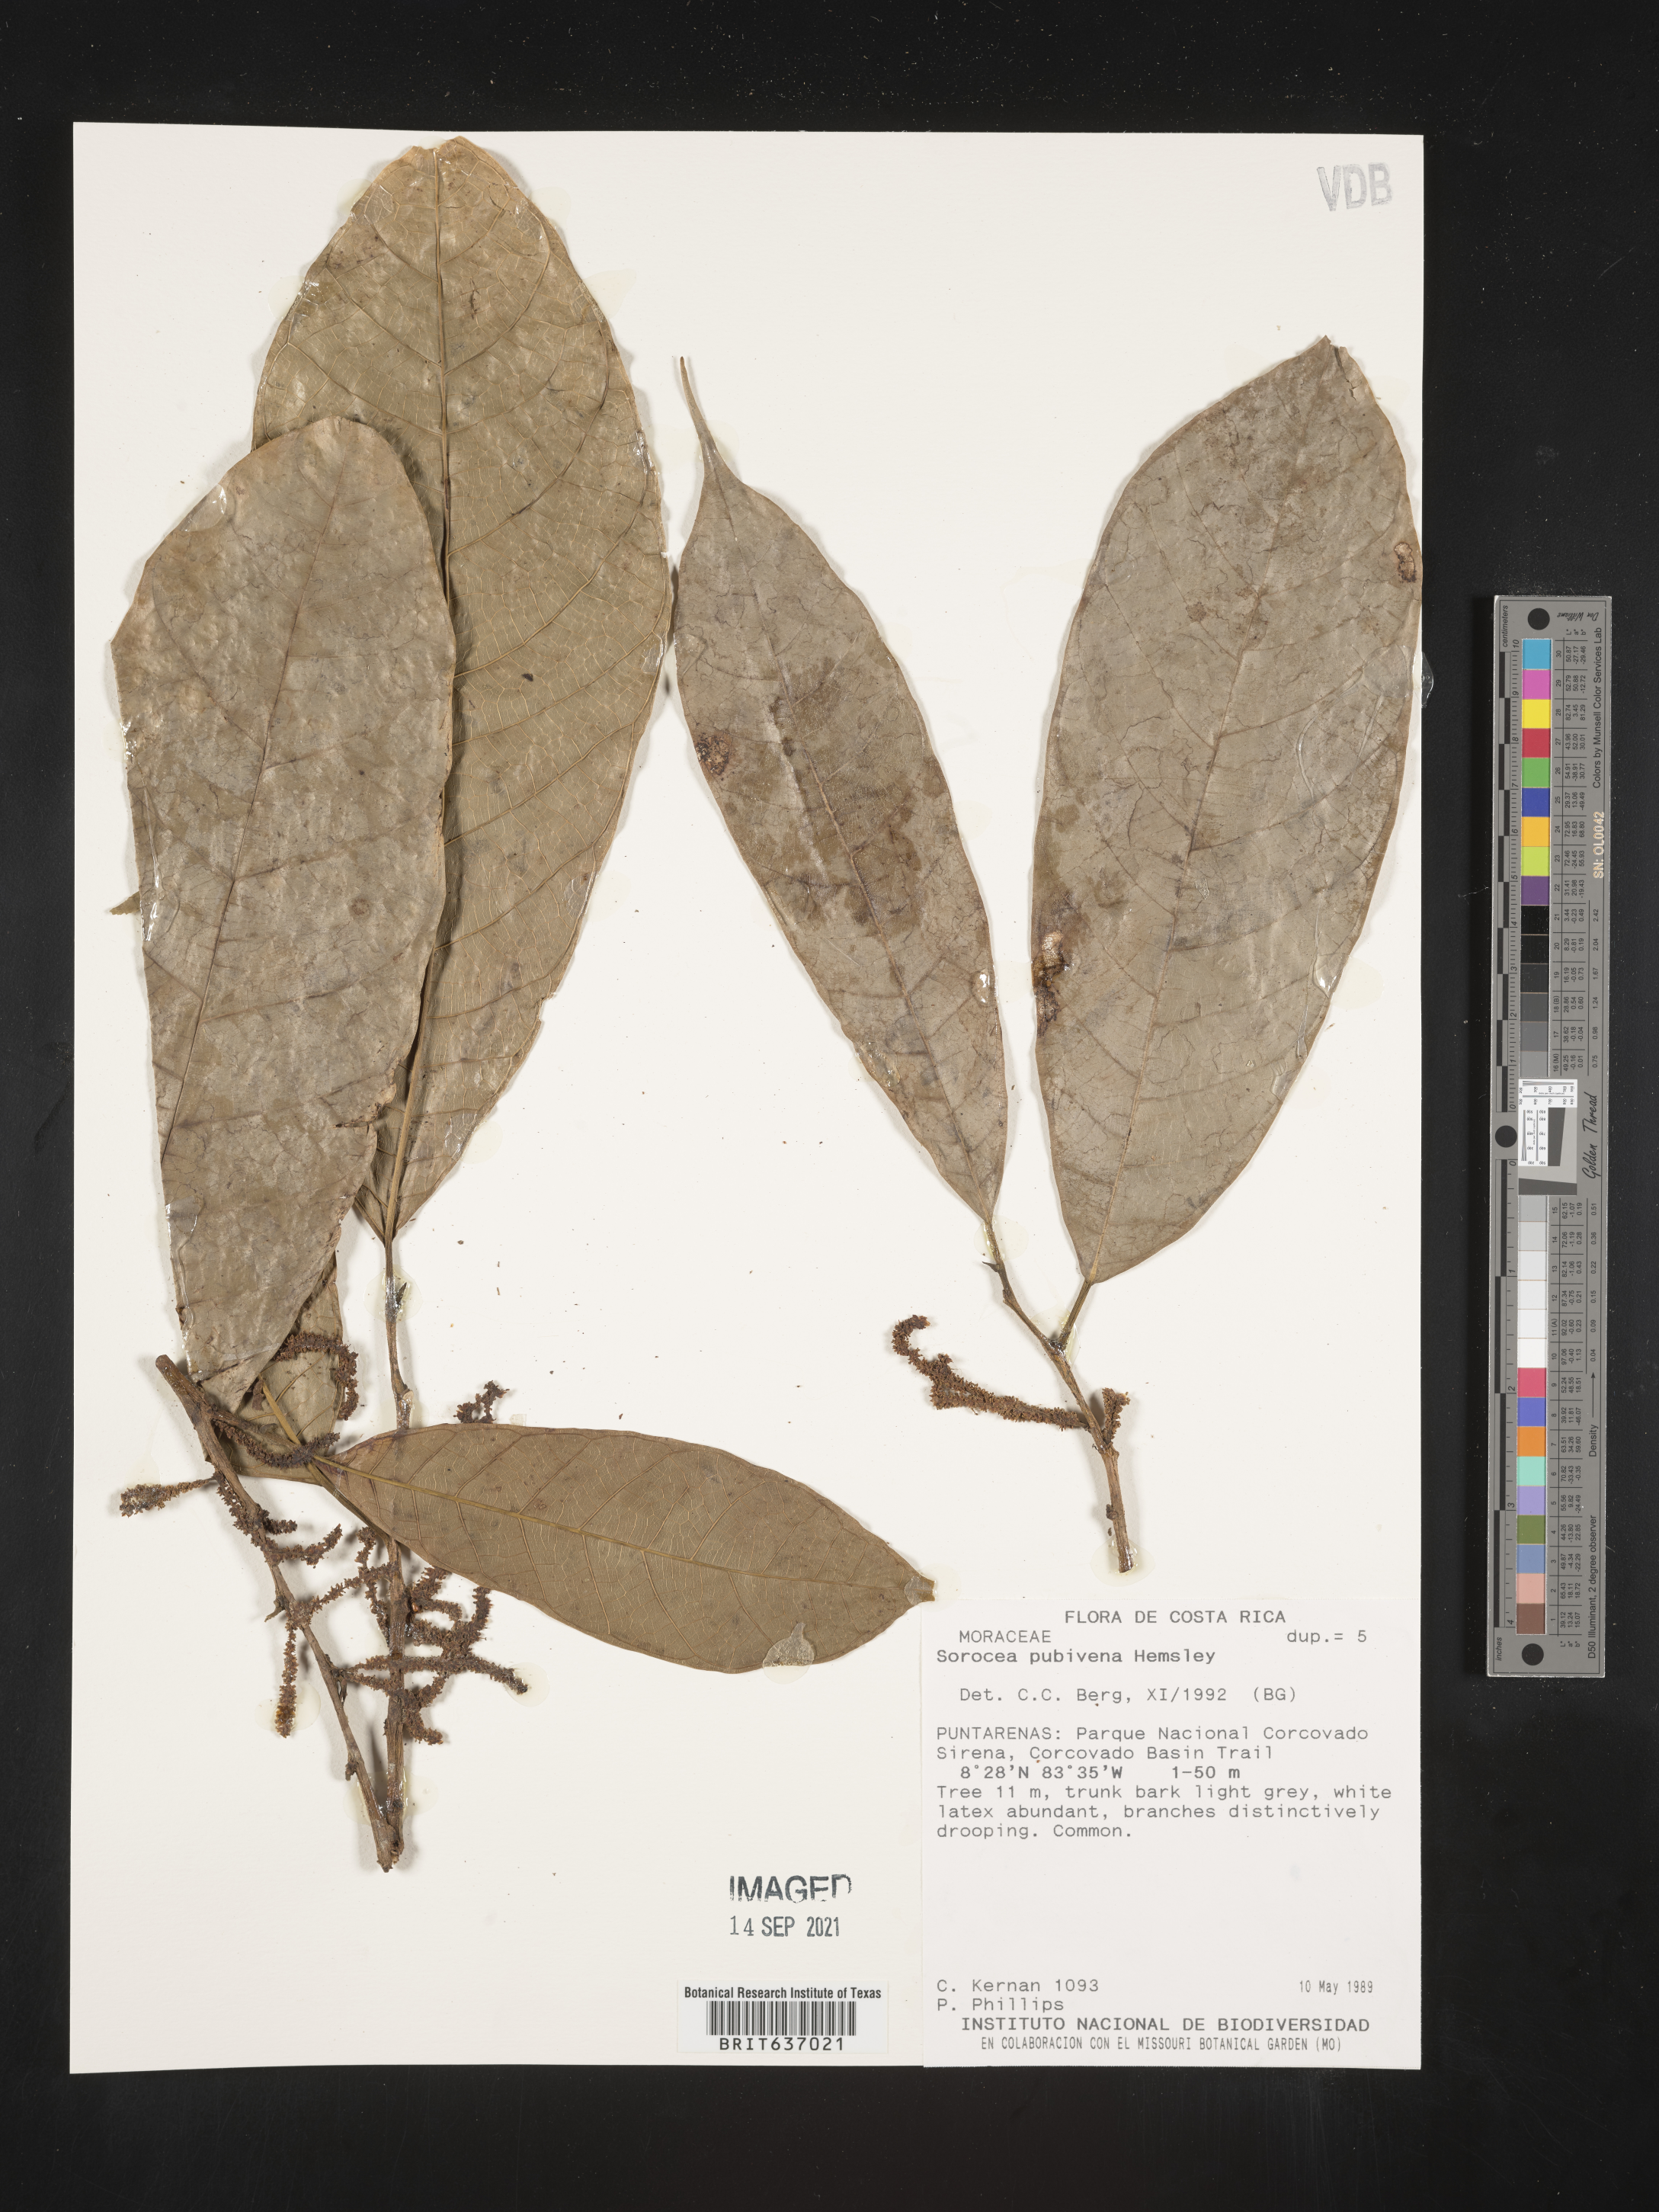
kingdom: Plantae
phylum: Tracheophyta
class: Magnoliopsida
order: Rosales
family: Moraceae
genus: Sorocea
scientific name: Sorocea
